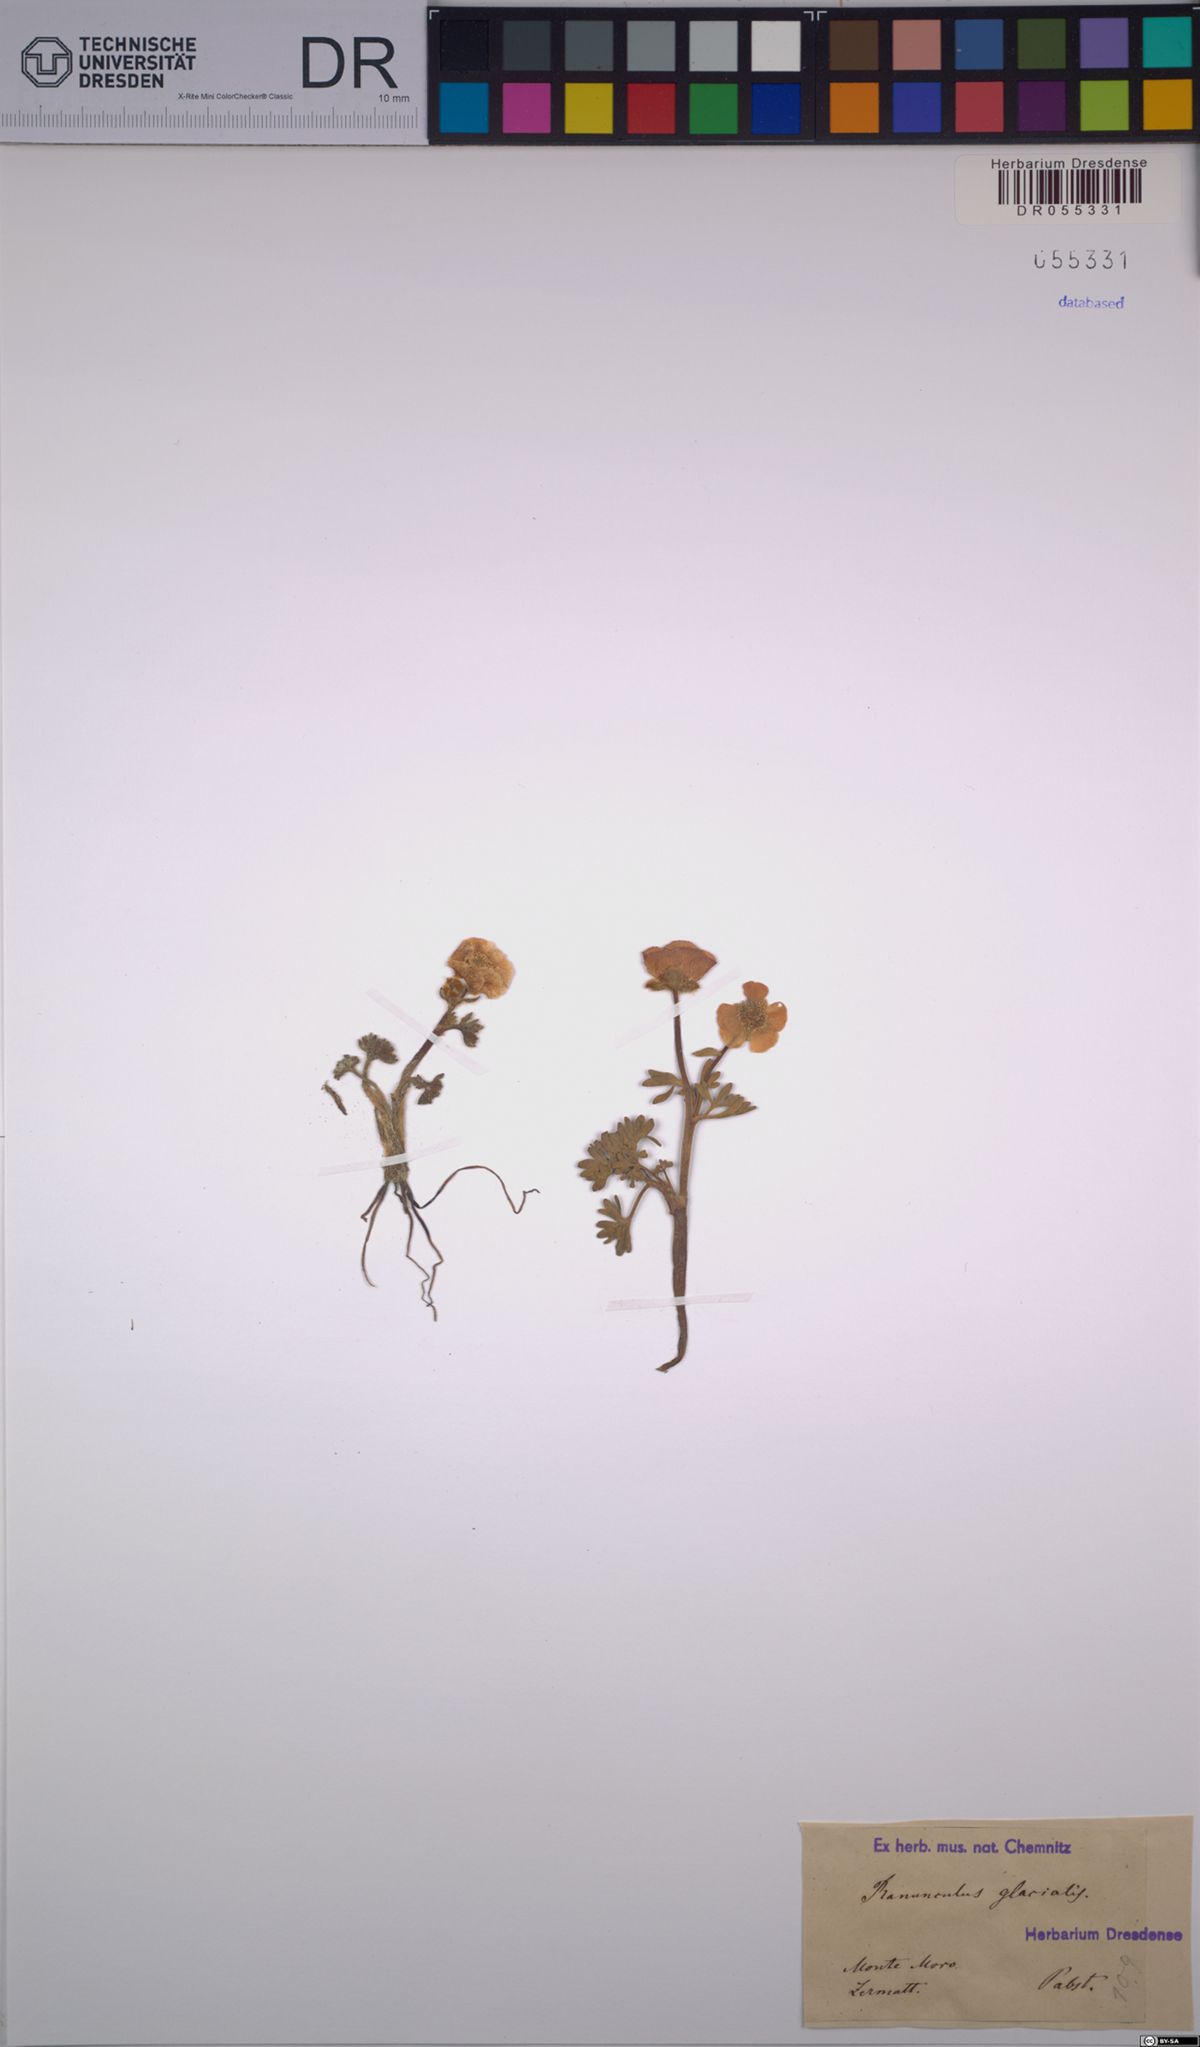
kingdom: Plantae
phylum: Tracheophyta
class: Magnoliopsida
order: Ranunculales
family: Ranunculaceae
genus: Ranunculus
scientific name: Ranunculus glacialis
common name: Glacier buttercup
